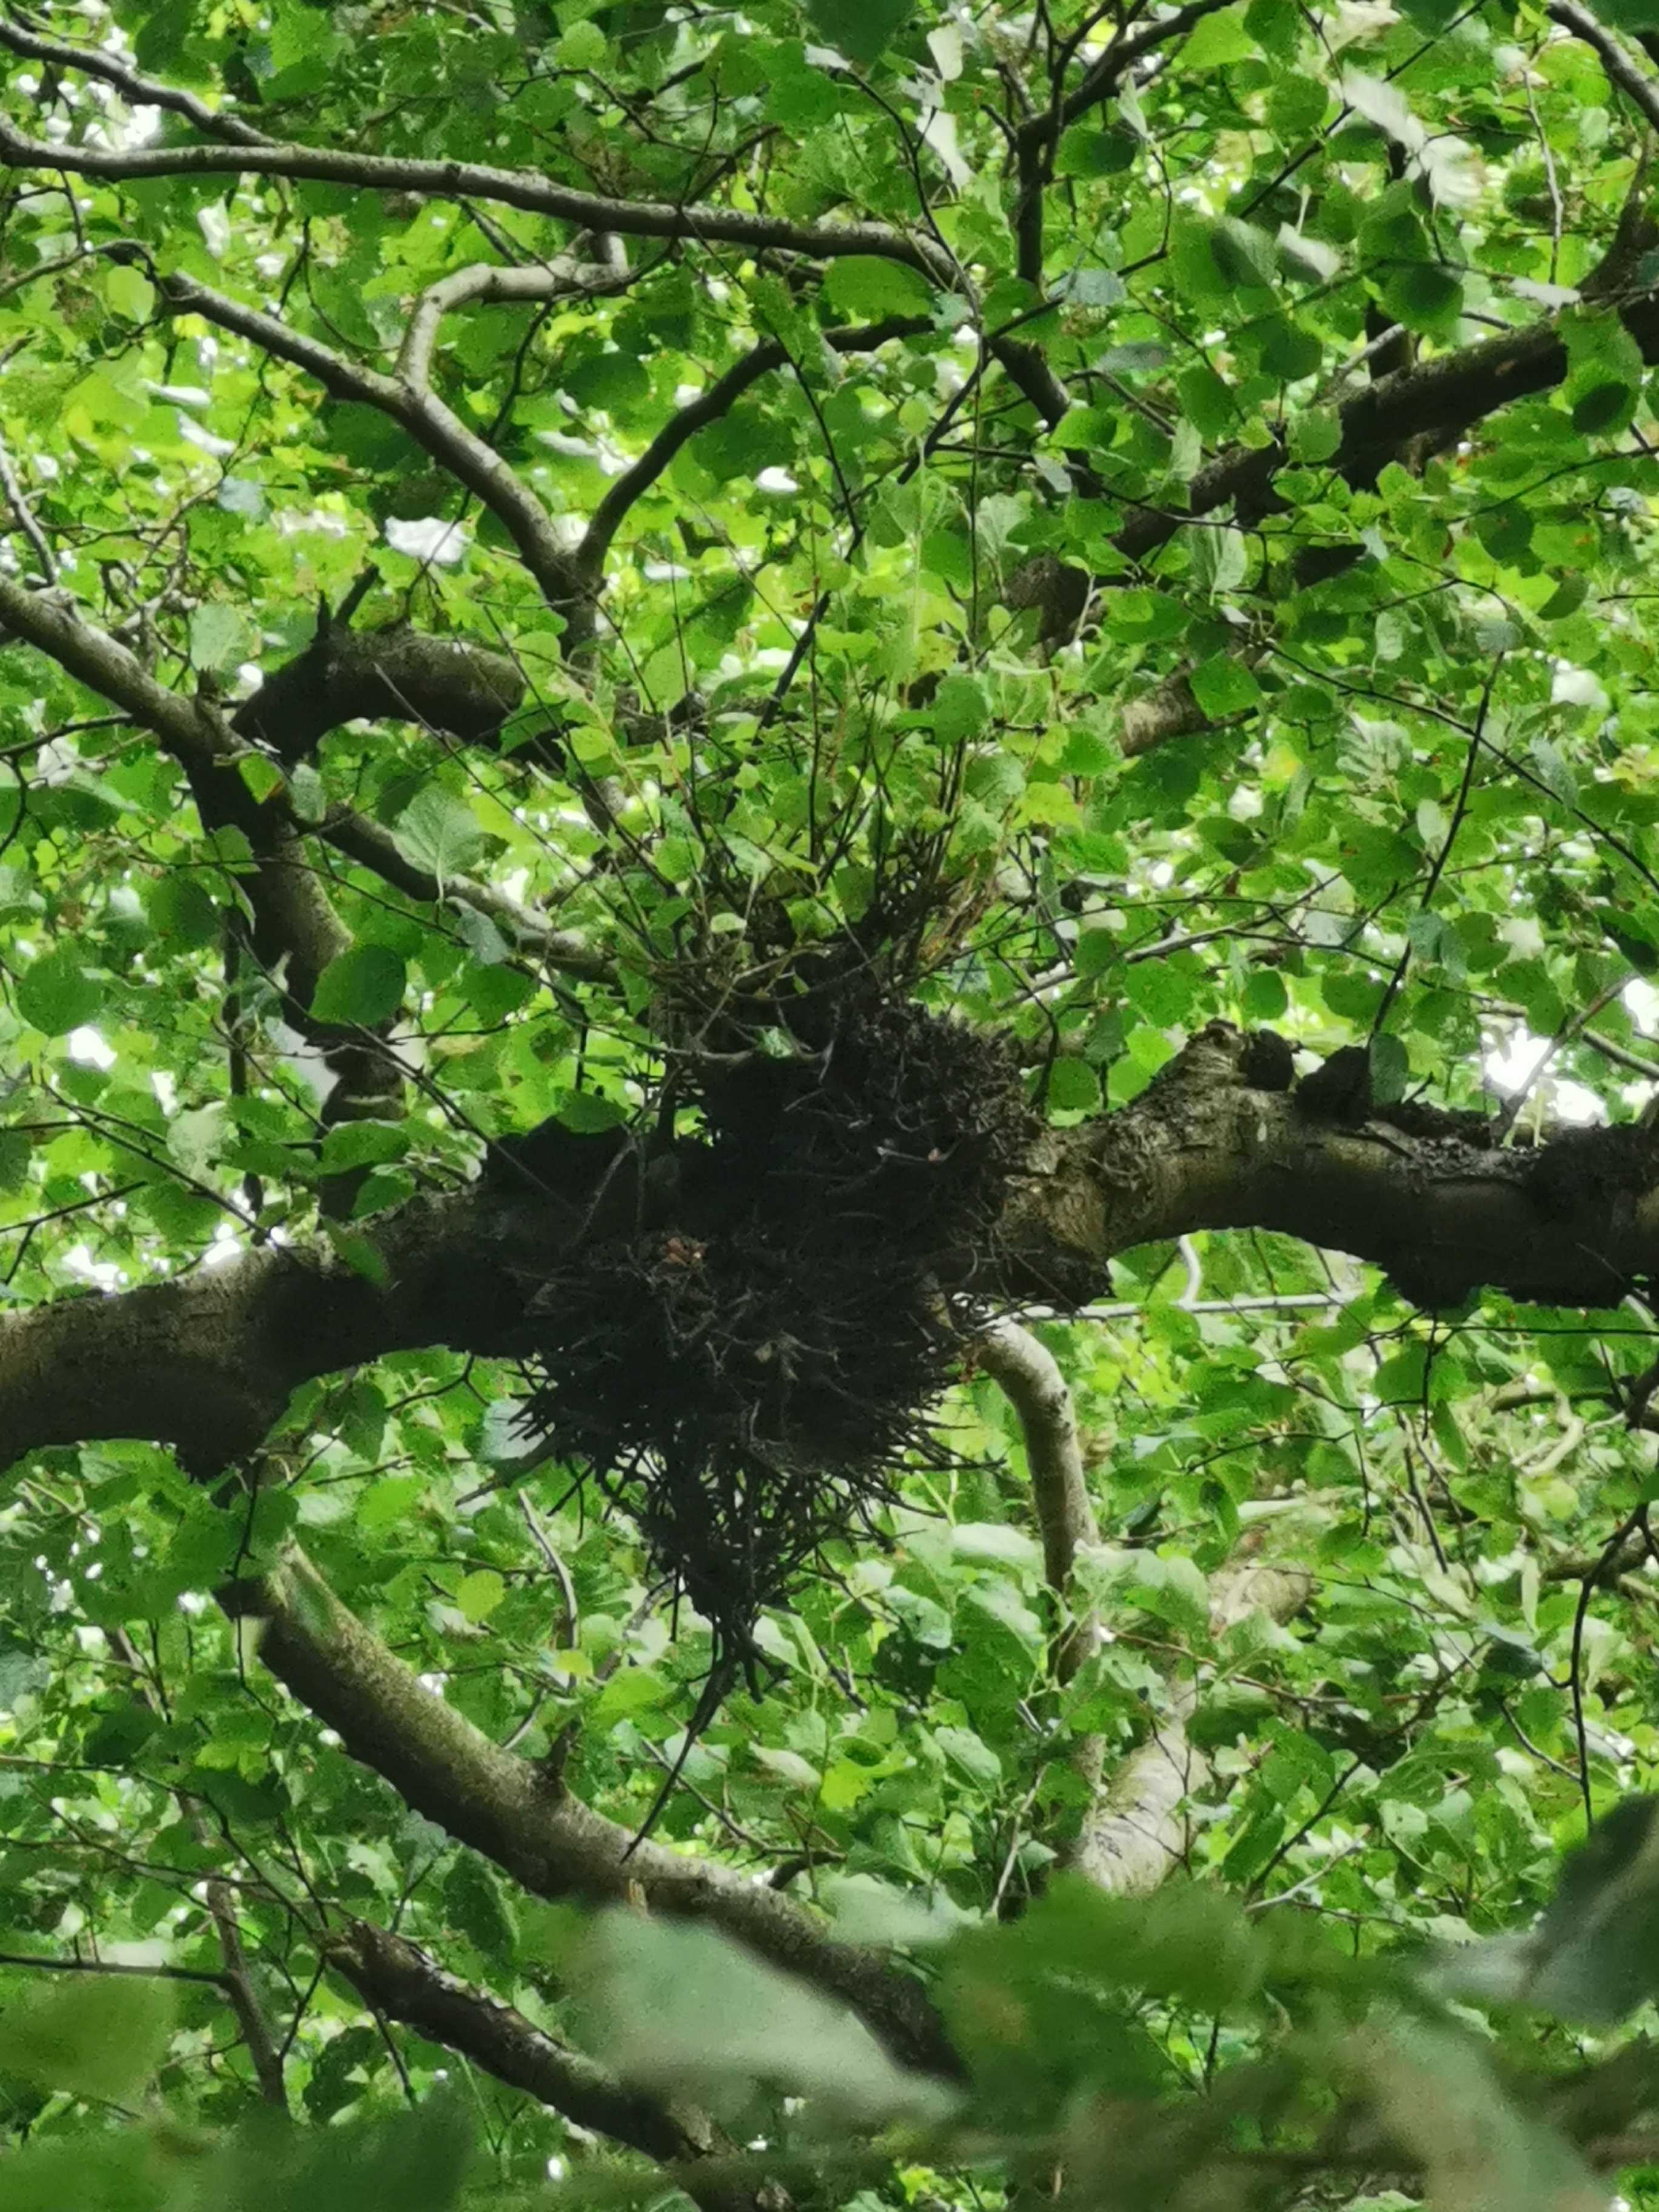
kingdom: Fungi
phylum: Ascomycota
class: Taphrinomycetes
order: Taphrinales
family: Taphrinaceae
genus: Taphrina
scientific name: Taphrina betulina
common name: hekse-sækdug
